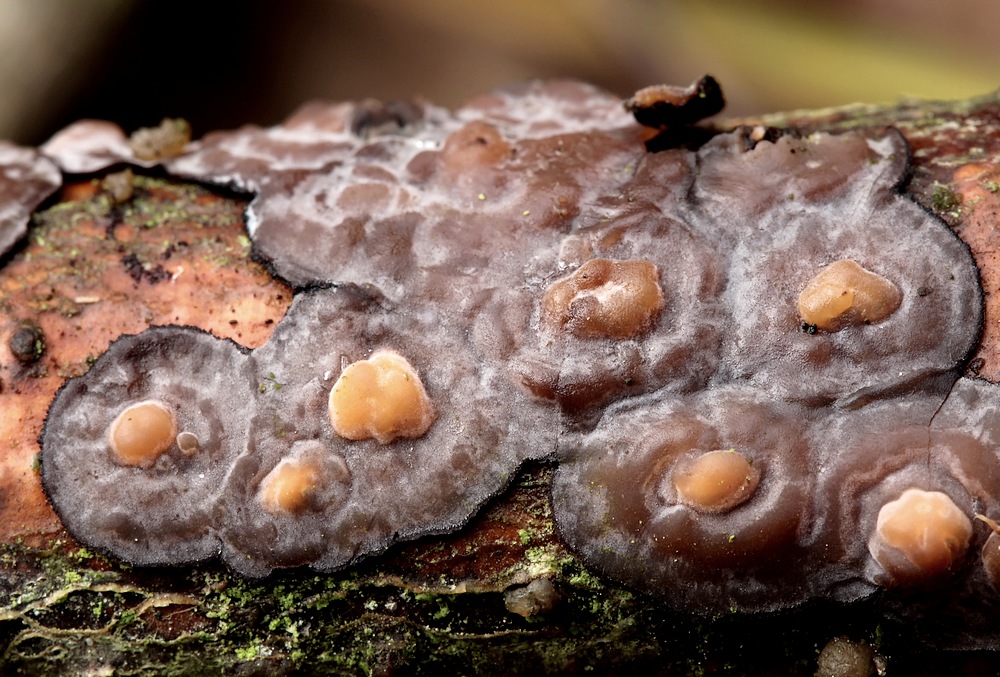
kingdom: Fungi
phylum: Basidiomycota
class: Pucciniomycetes
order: Platygloeales
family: Platygloeaceae
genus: Platygloea
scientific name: Platygloea
